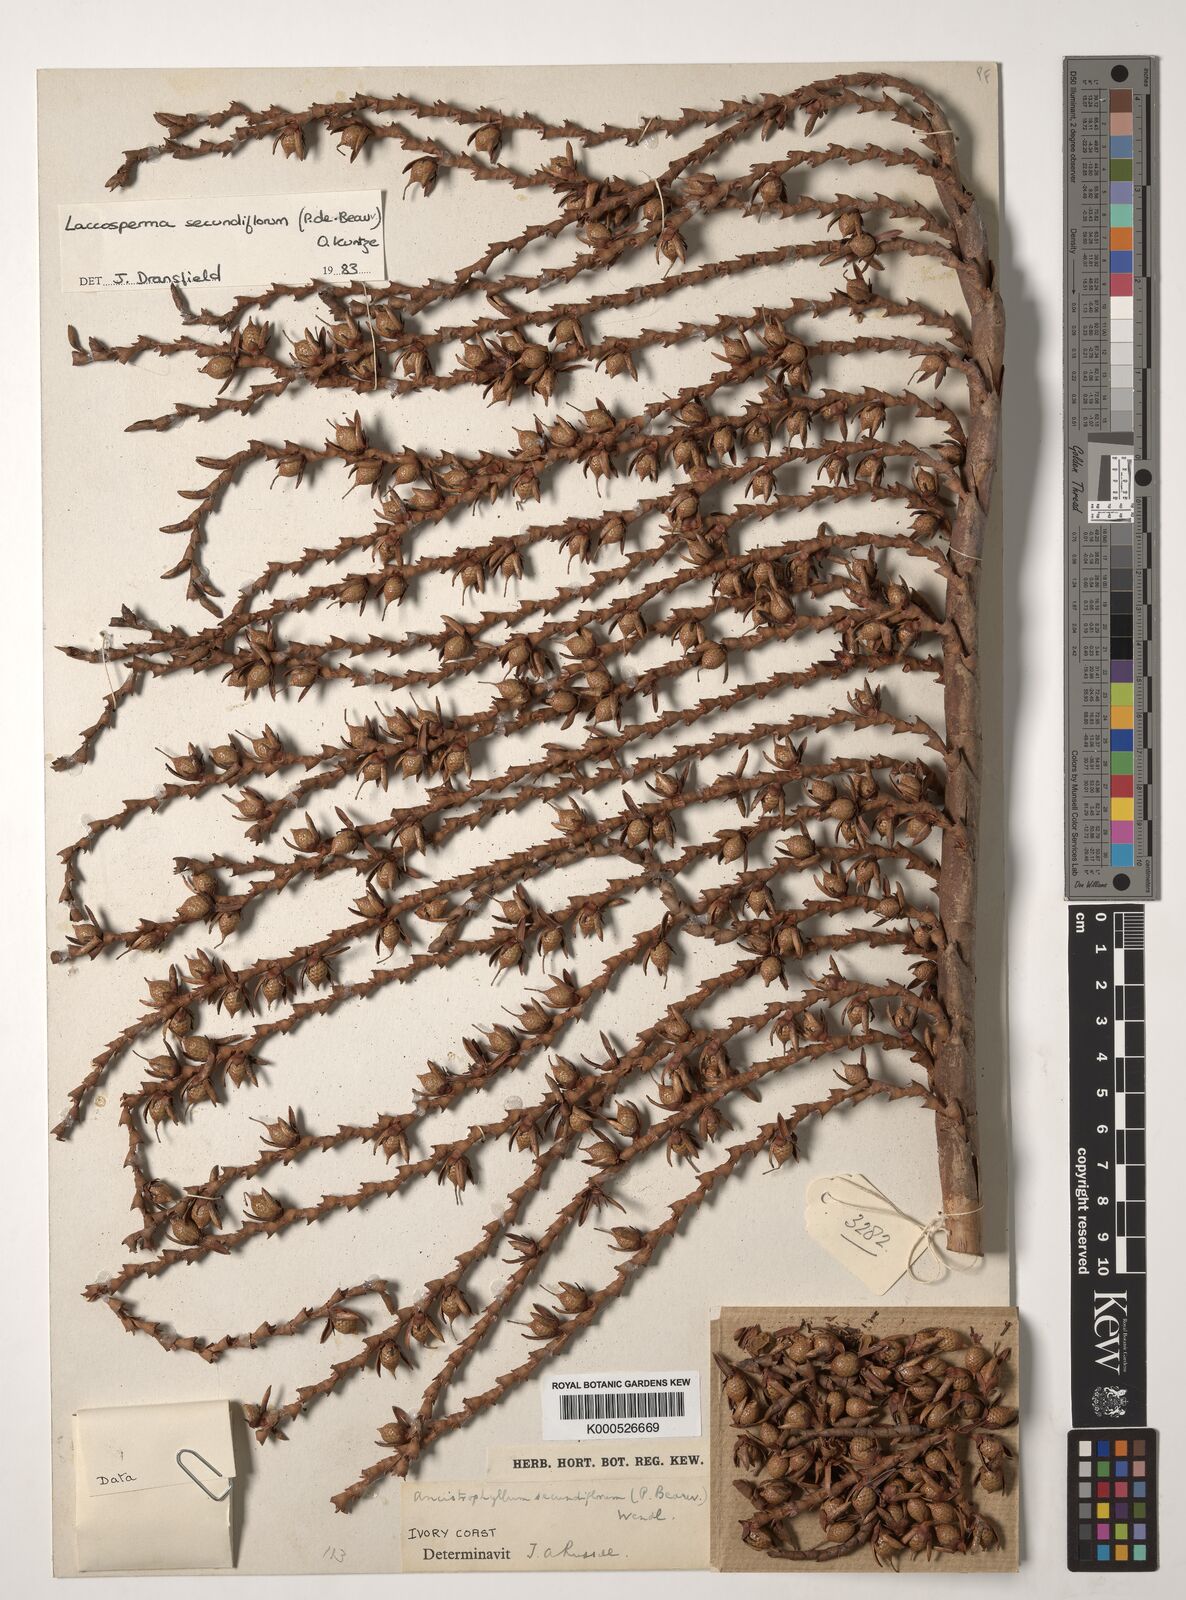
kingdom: Plantae
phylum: Tracheophyta
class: Liliopsida
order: Arecales
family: Arecaceae
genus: Laccosperma
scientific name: Laccosperma secundiflorum
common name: Rattan
